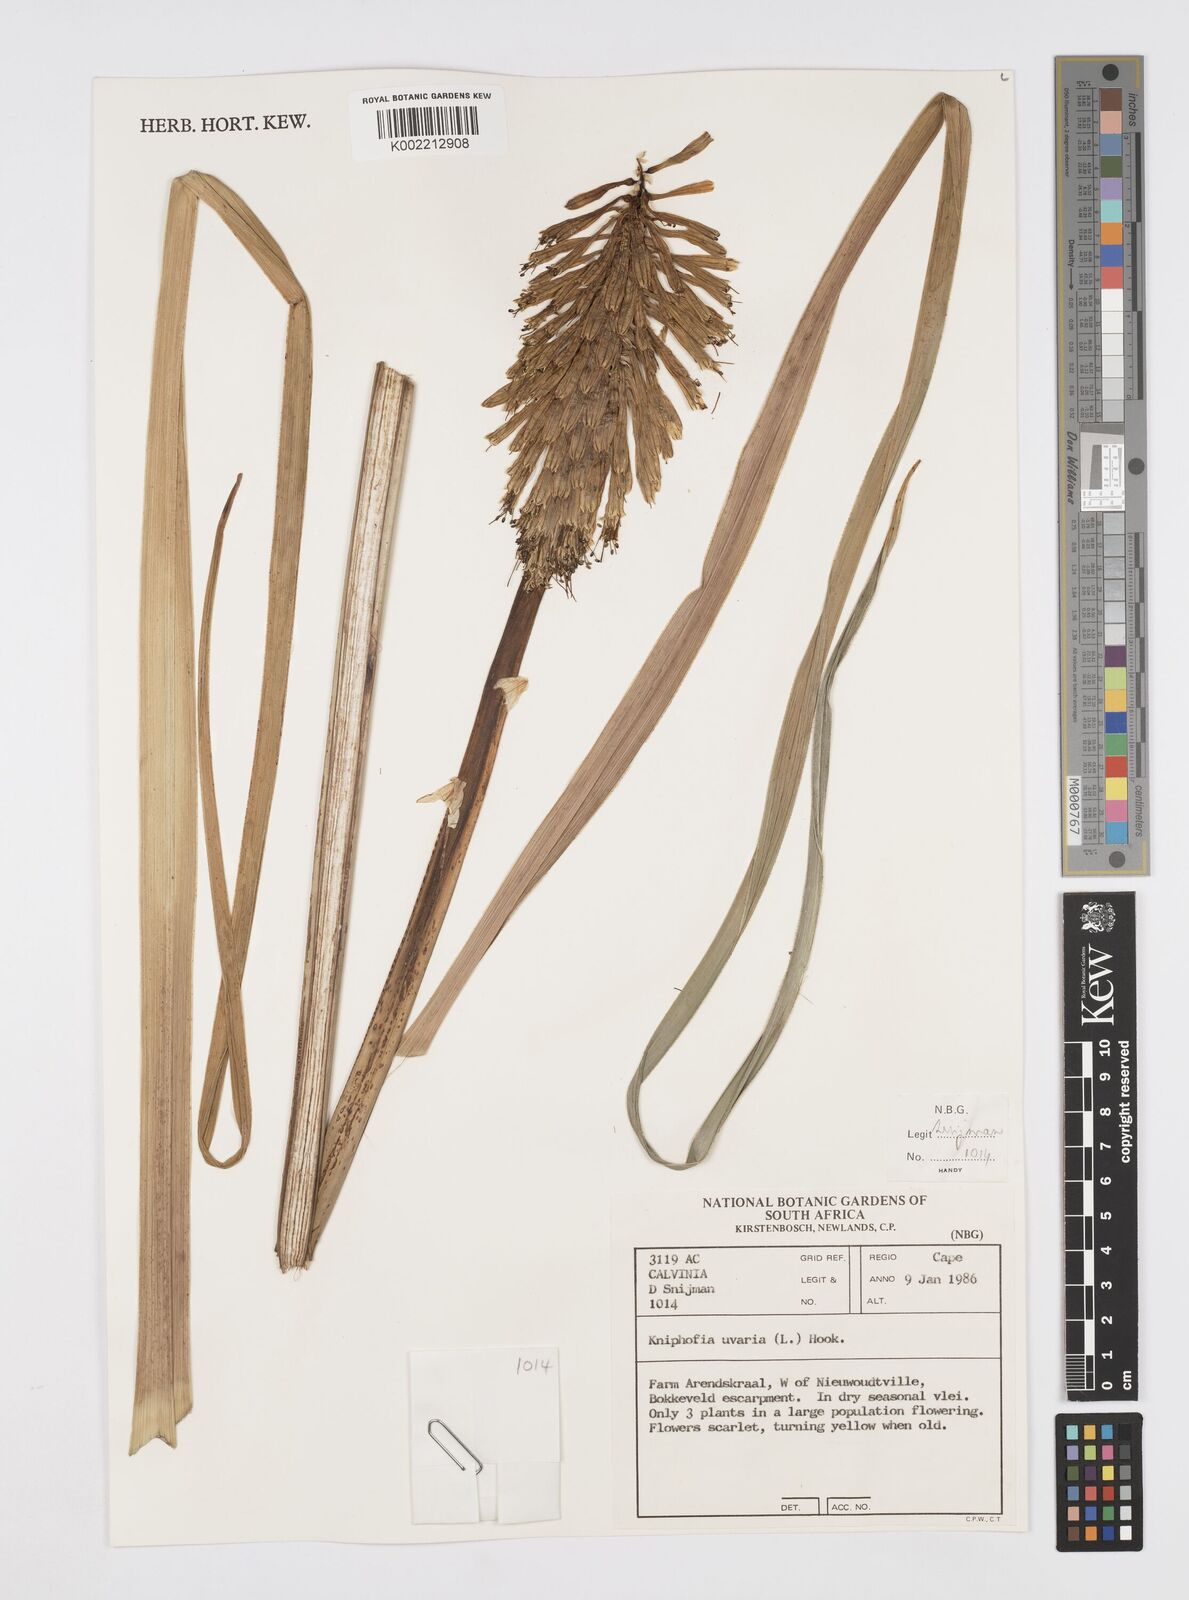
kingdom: Plantae
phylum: Tracheophyta
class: Liliopsida
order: Asparagales
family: Asphodelaceae
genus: Kniphofia
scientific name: Kniphofia uvaria
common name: Red-hot-poker
